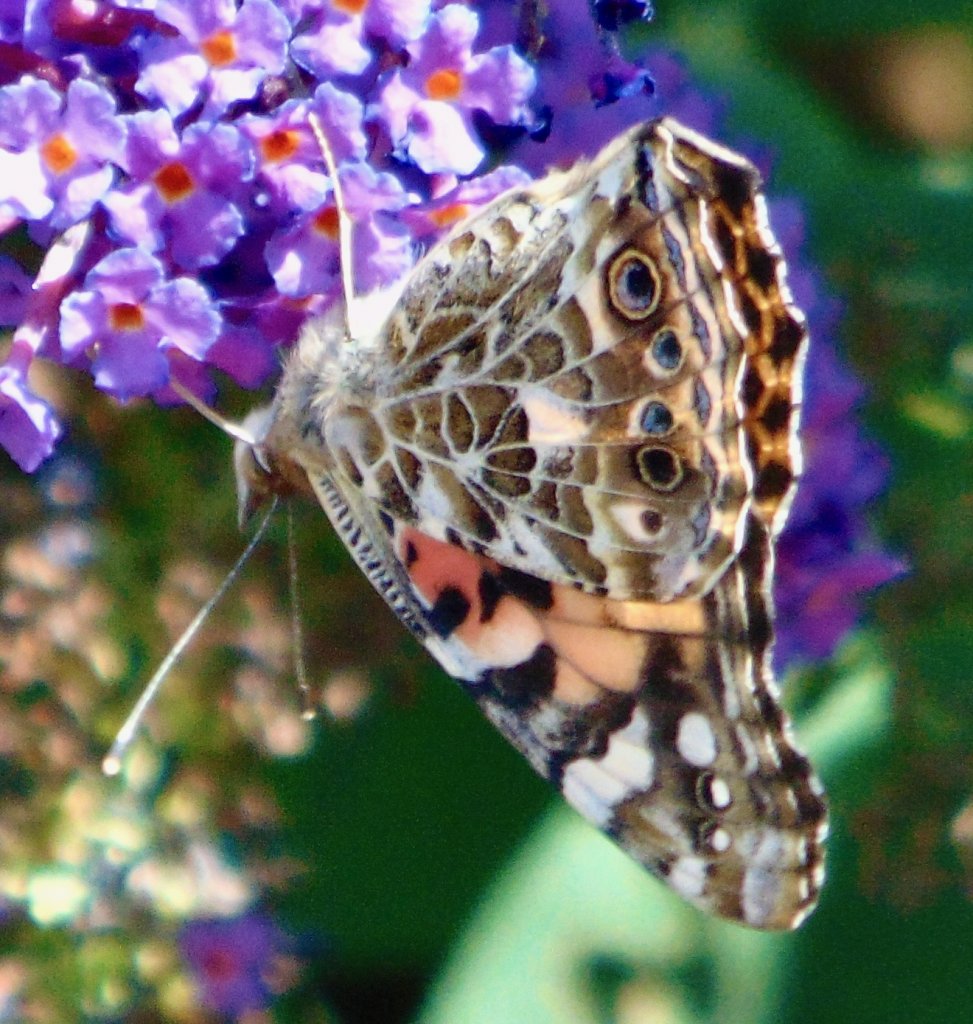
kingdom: Animalia
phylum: Arthropoda
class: Insecta
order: Lepidoptera
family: Nymphalidae
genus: Vanessa
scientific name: Vanessa cardui
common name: Painted Lady
